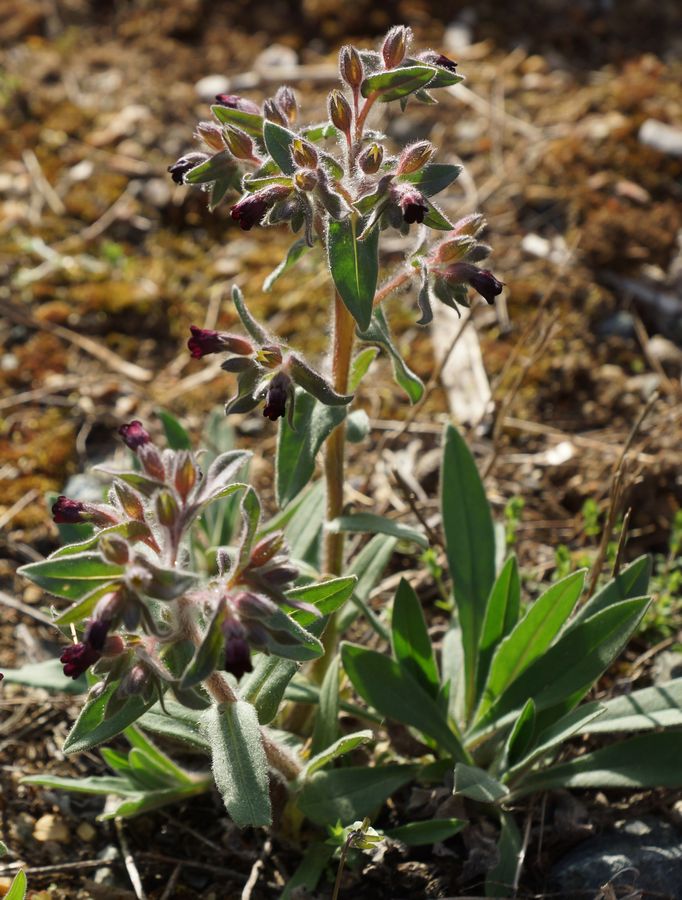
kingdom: Plantae
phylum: Tracheophyta
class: Magnoliopsida
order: Boraginales
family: Boraginaceae
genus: Nonea
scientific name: Nonea pulla
